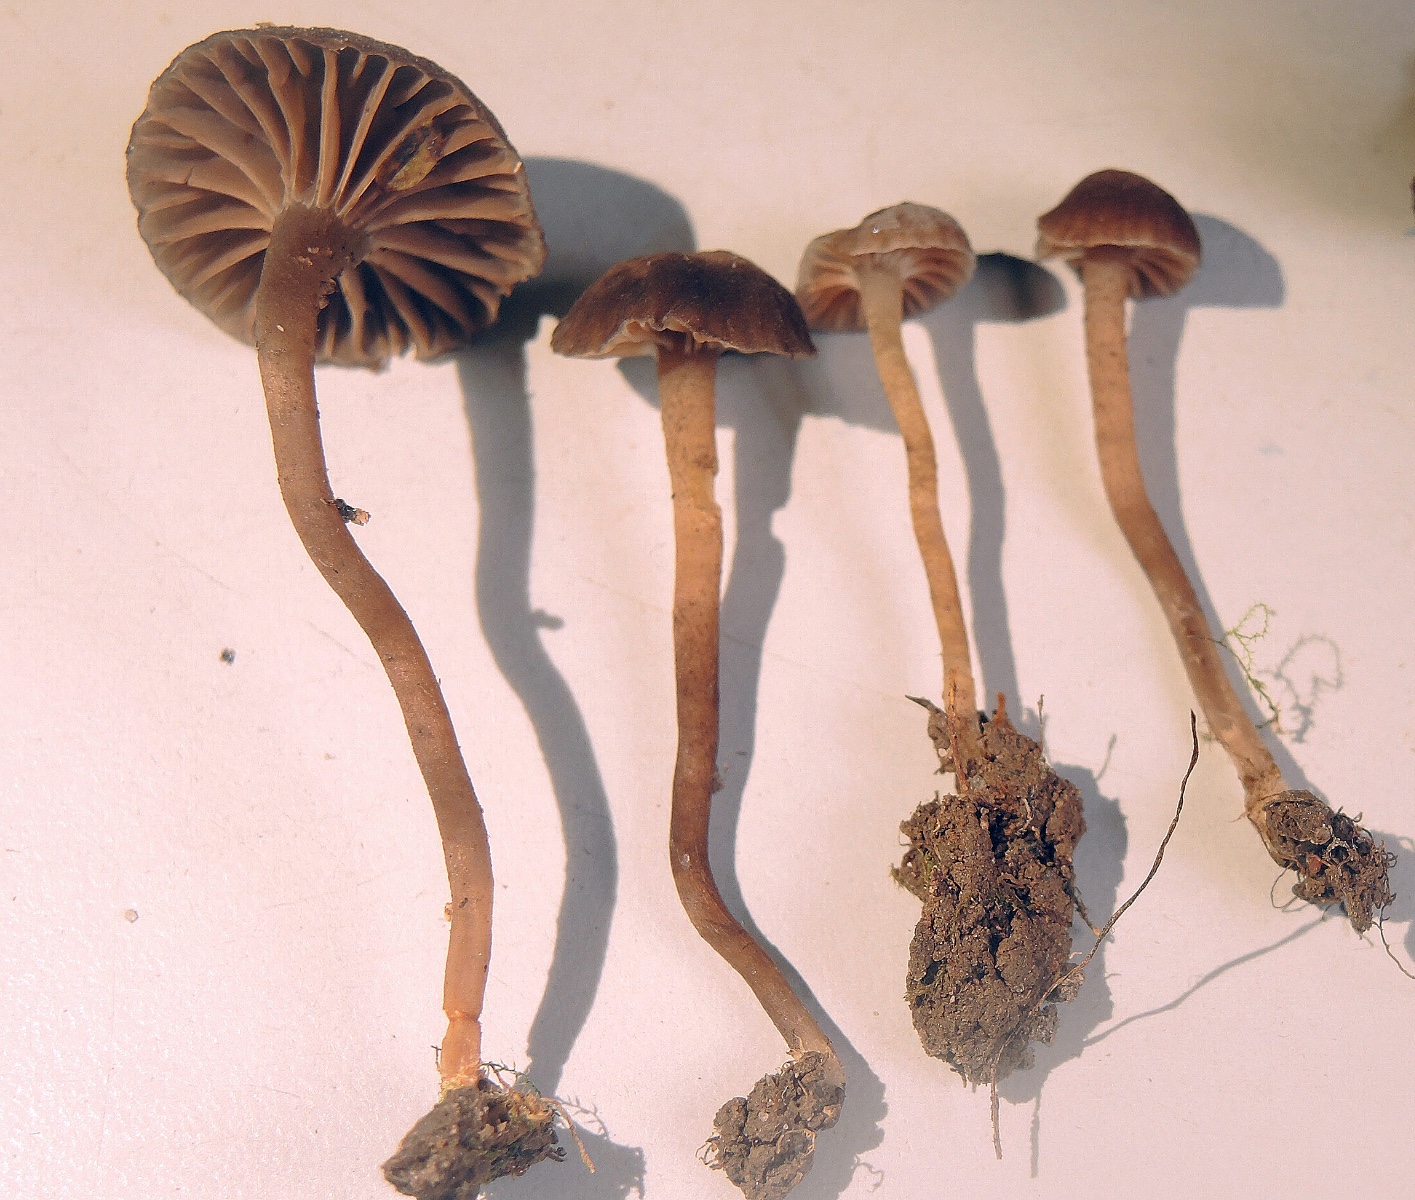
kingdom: Fungi
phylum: Basidiomycota
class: Agaricomycetes
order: Agaricales
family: Clavariaceae
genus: Hodophilus
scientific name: Hodophilus variabilipes
